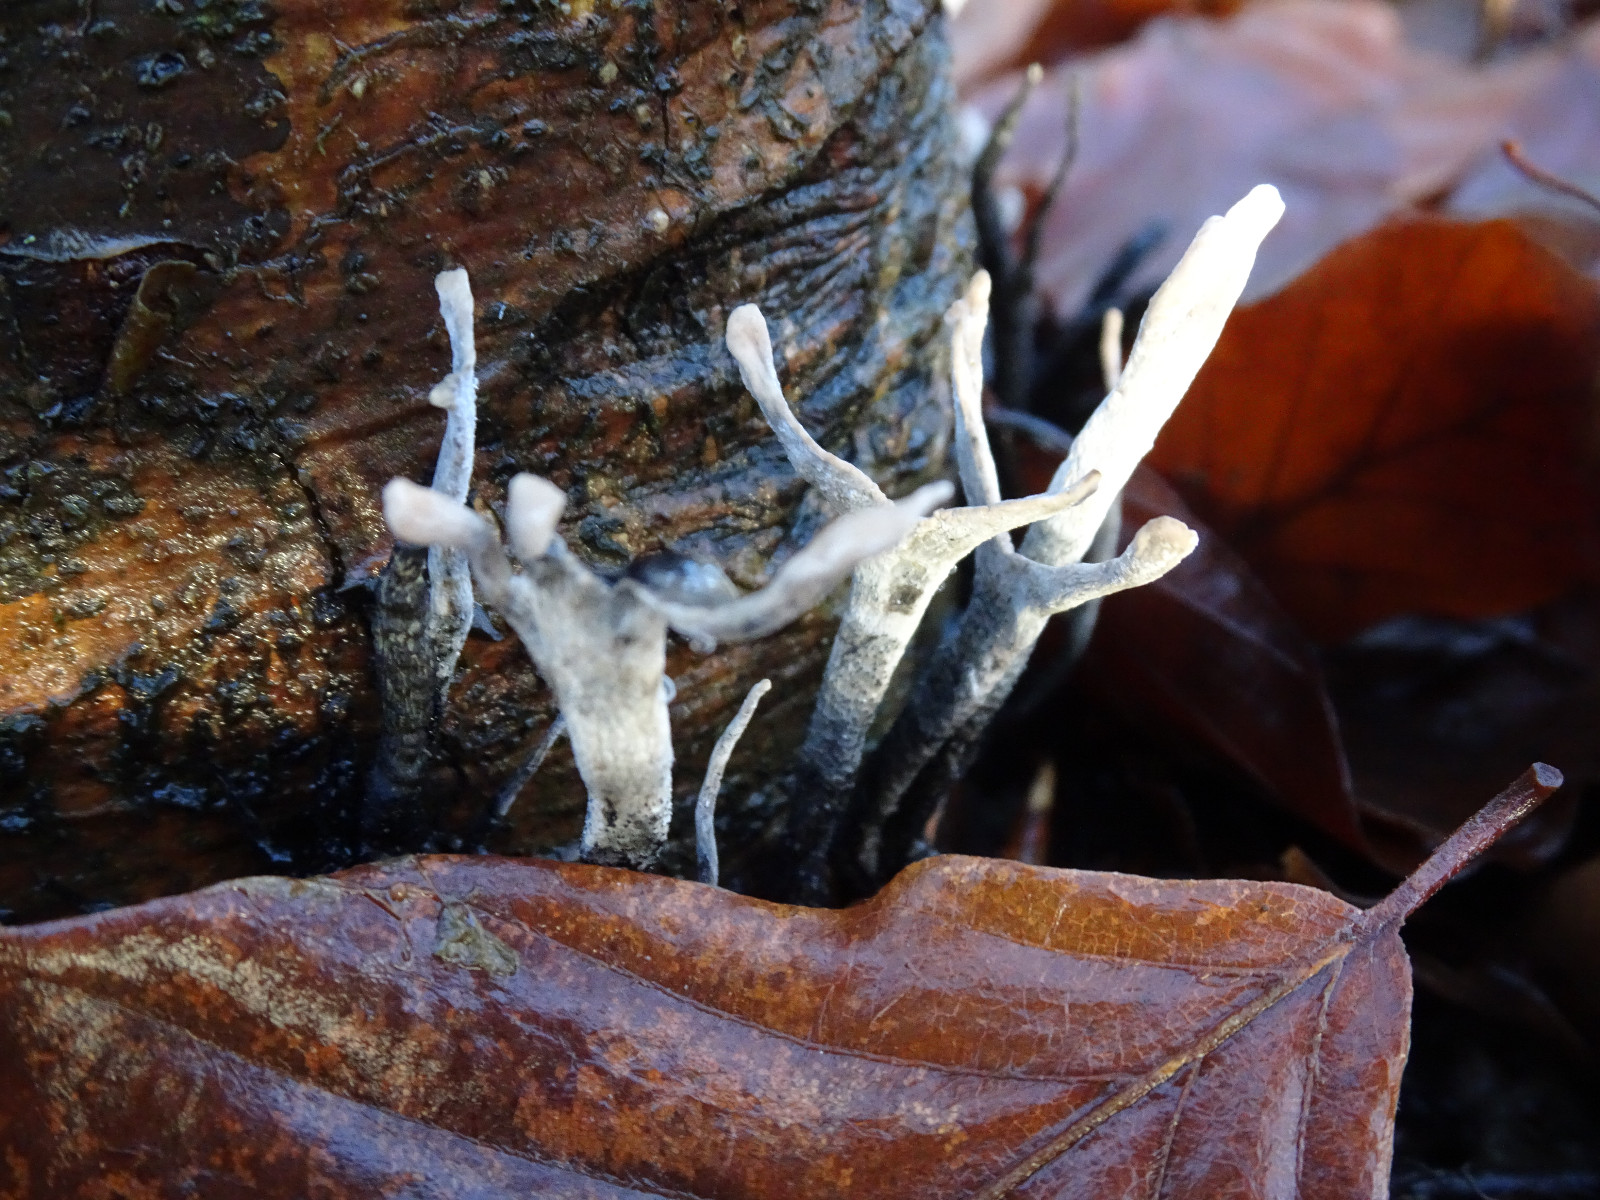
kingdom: Fungi
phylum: Ascomycota
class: Sordariomycetes
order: Xylariales
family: Xylariaceae
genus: Xylaria
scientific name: Xylaria hypoxylon
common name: grenet stødsvamp
